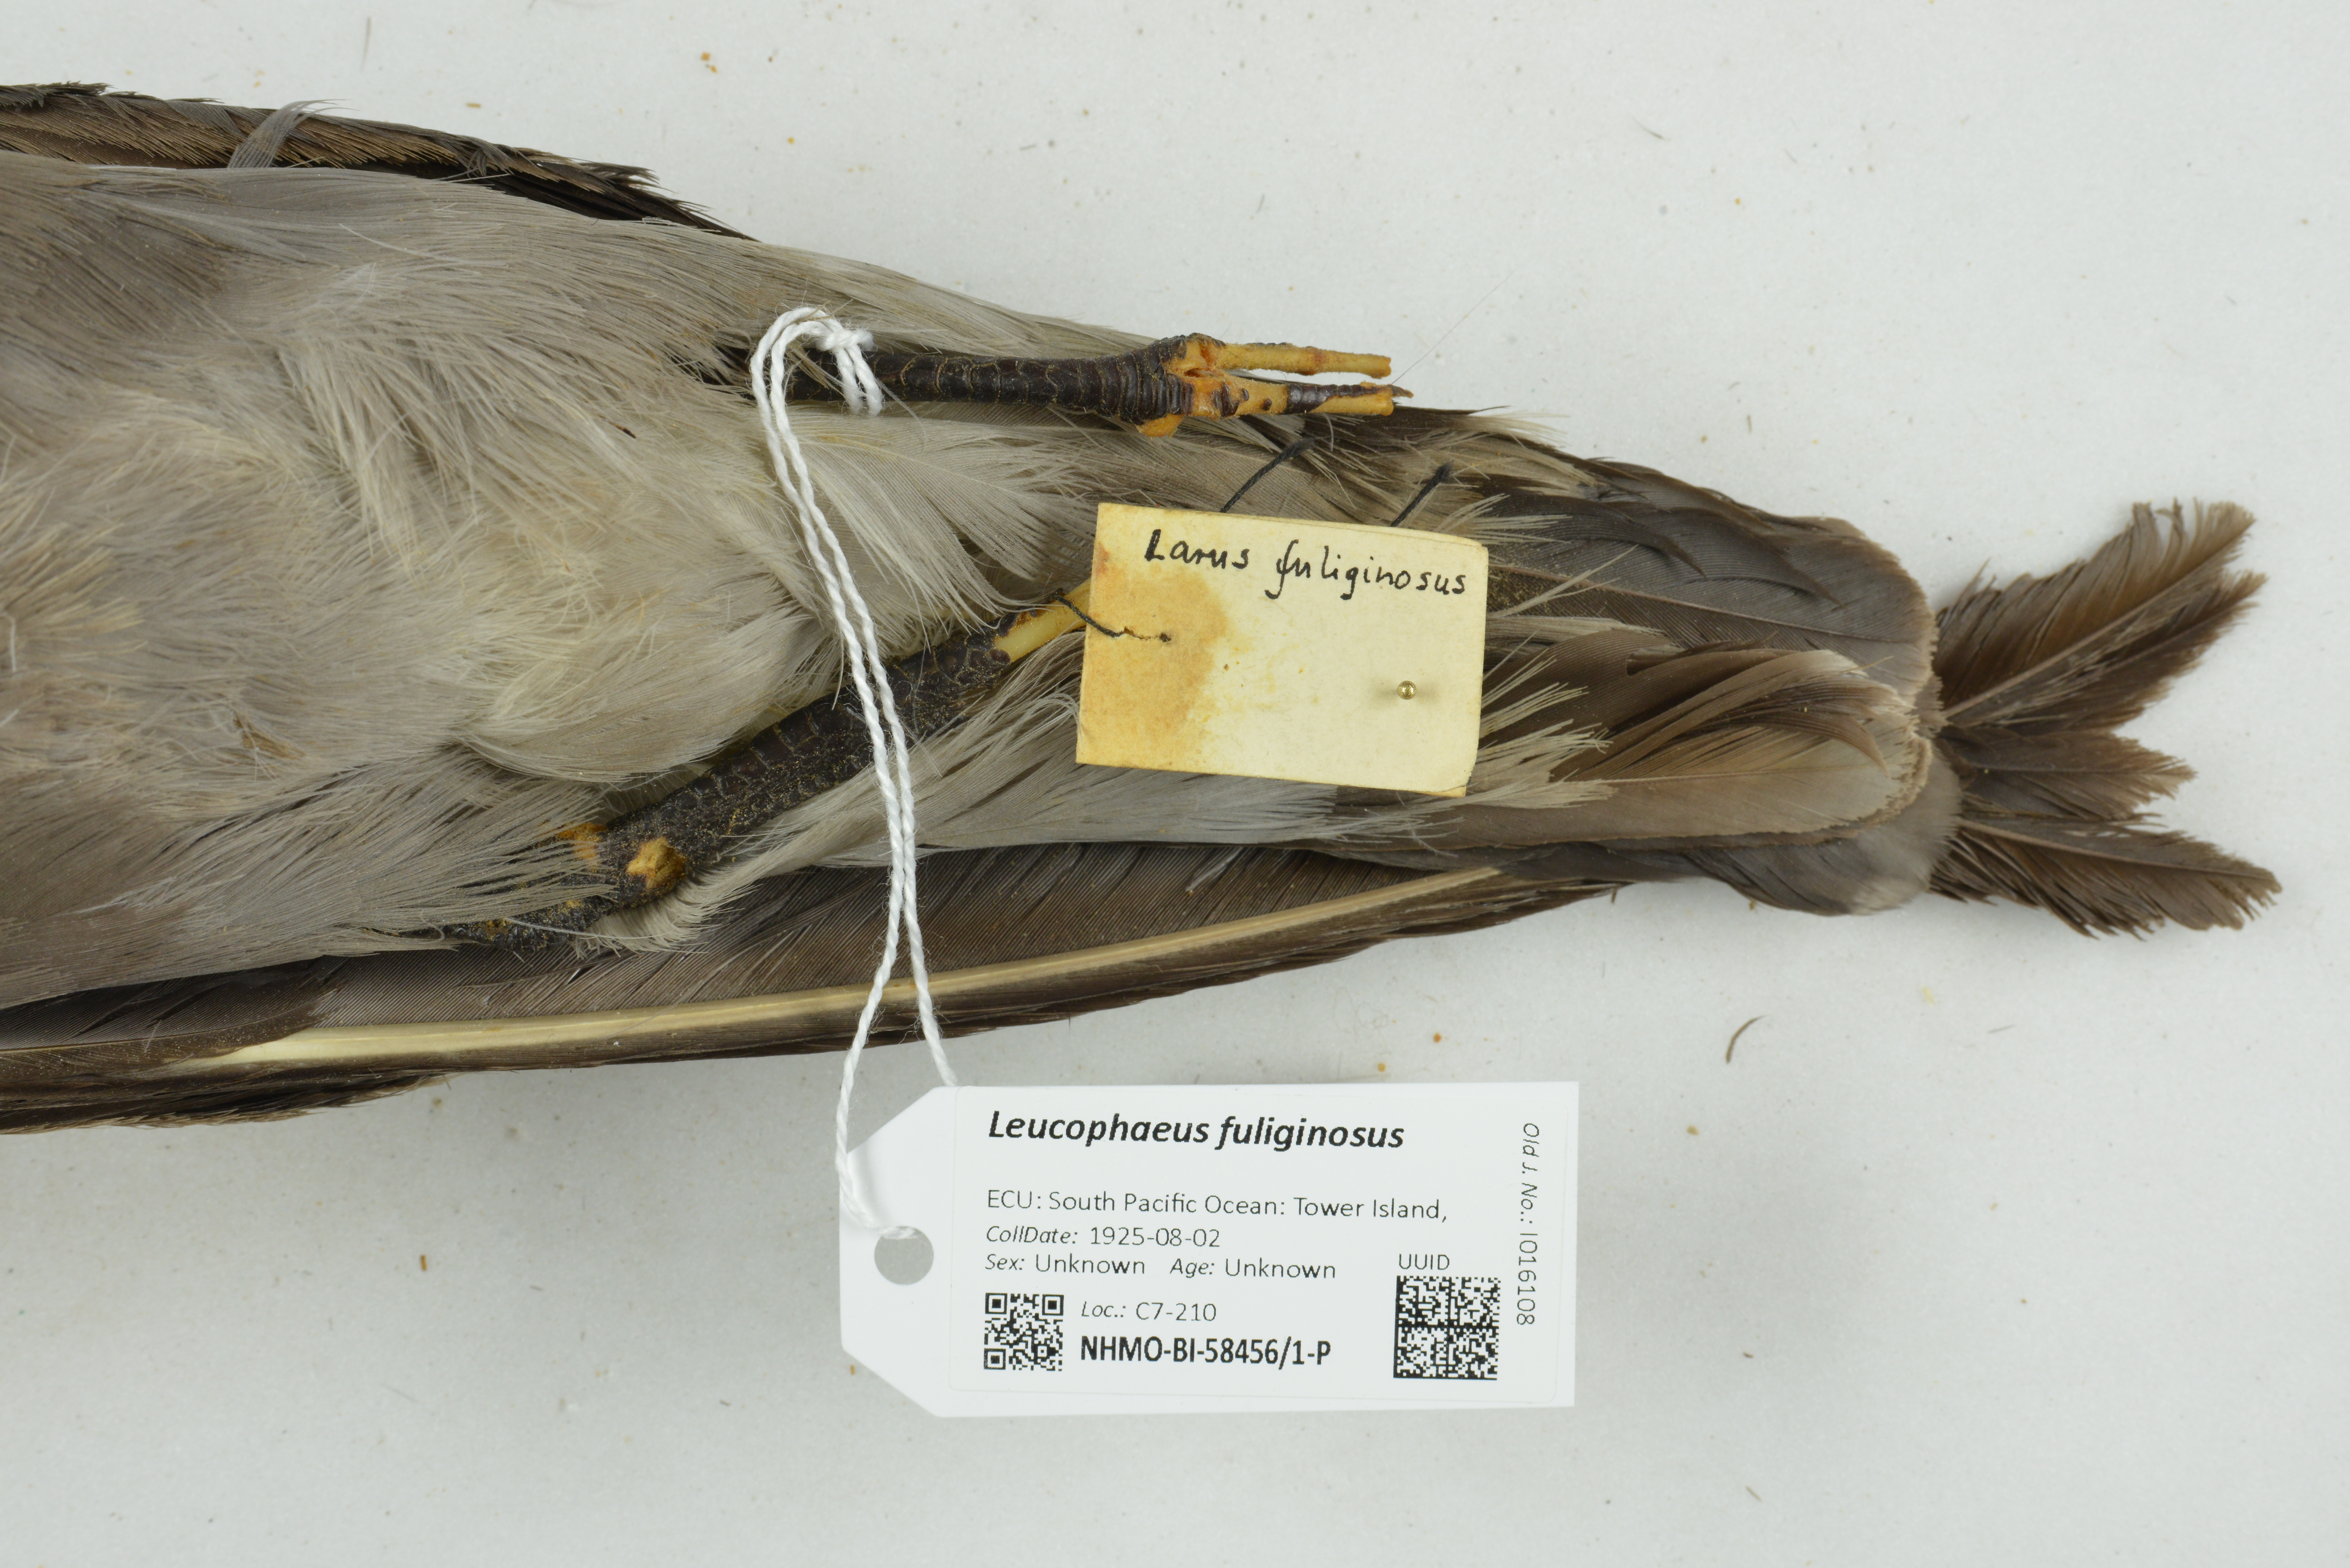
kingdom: Animalia
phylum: Chordata
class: Aves
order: Charadriiformes
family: Laridae
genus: Leucophaeus
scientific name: Leucophaeus fuliginosus
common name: Lava gull
